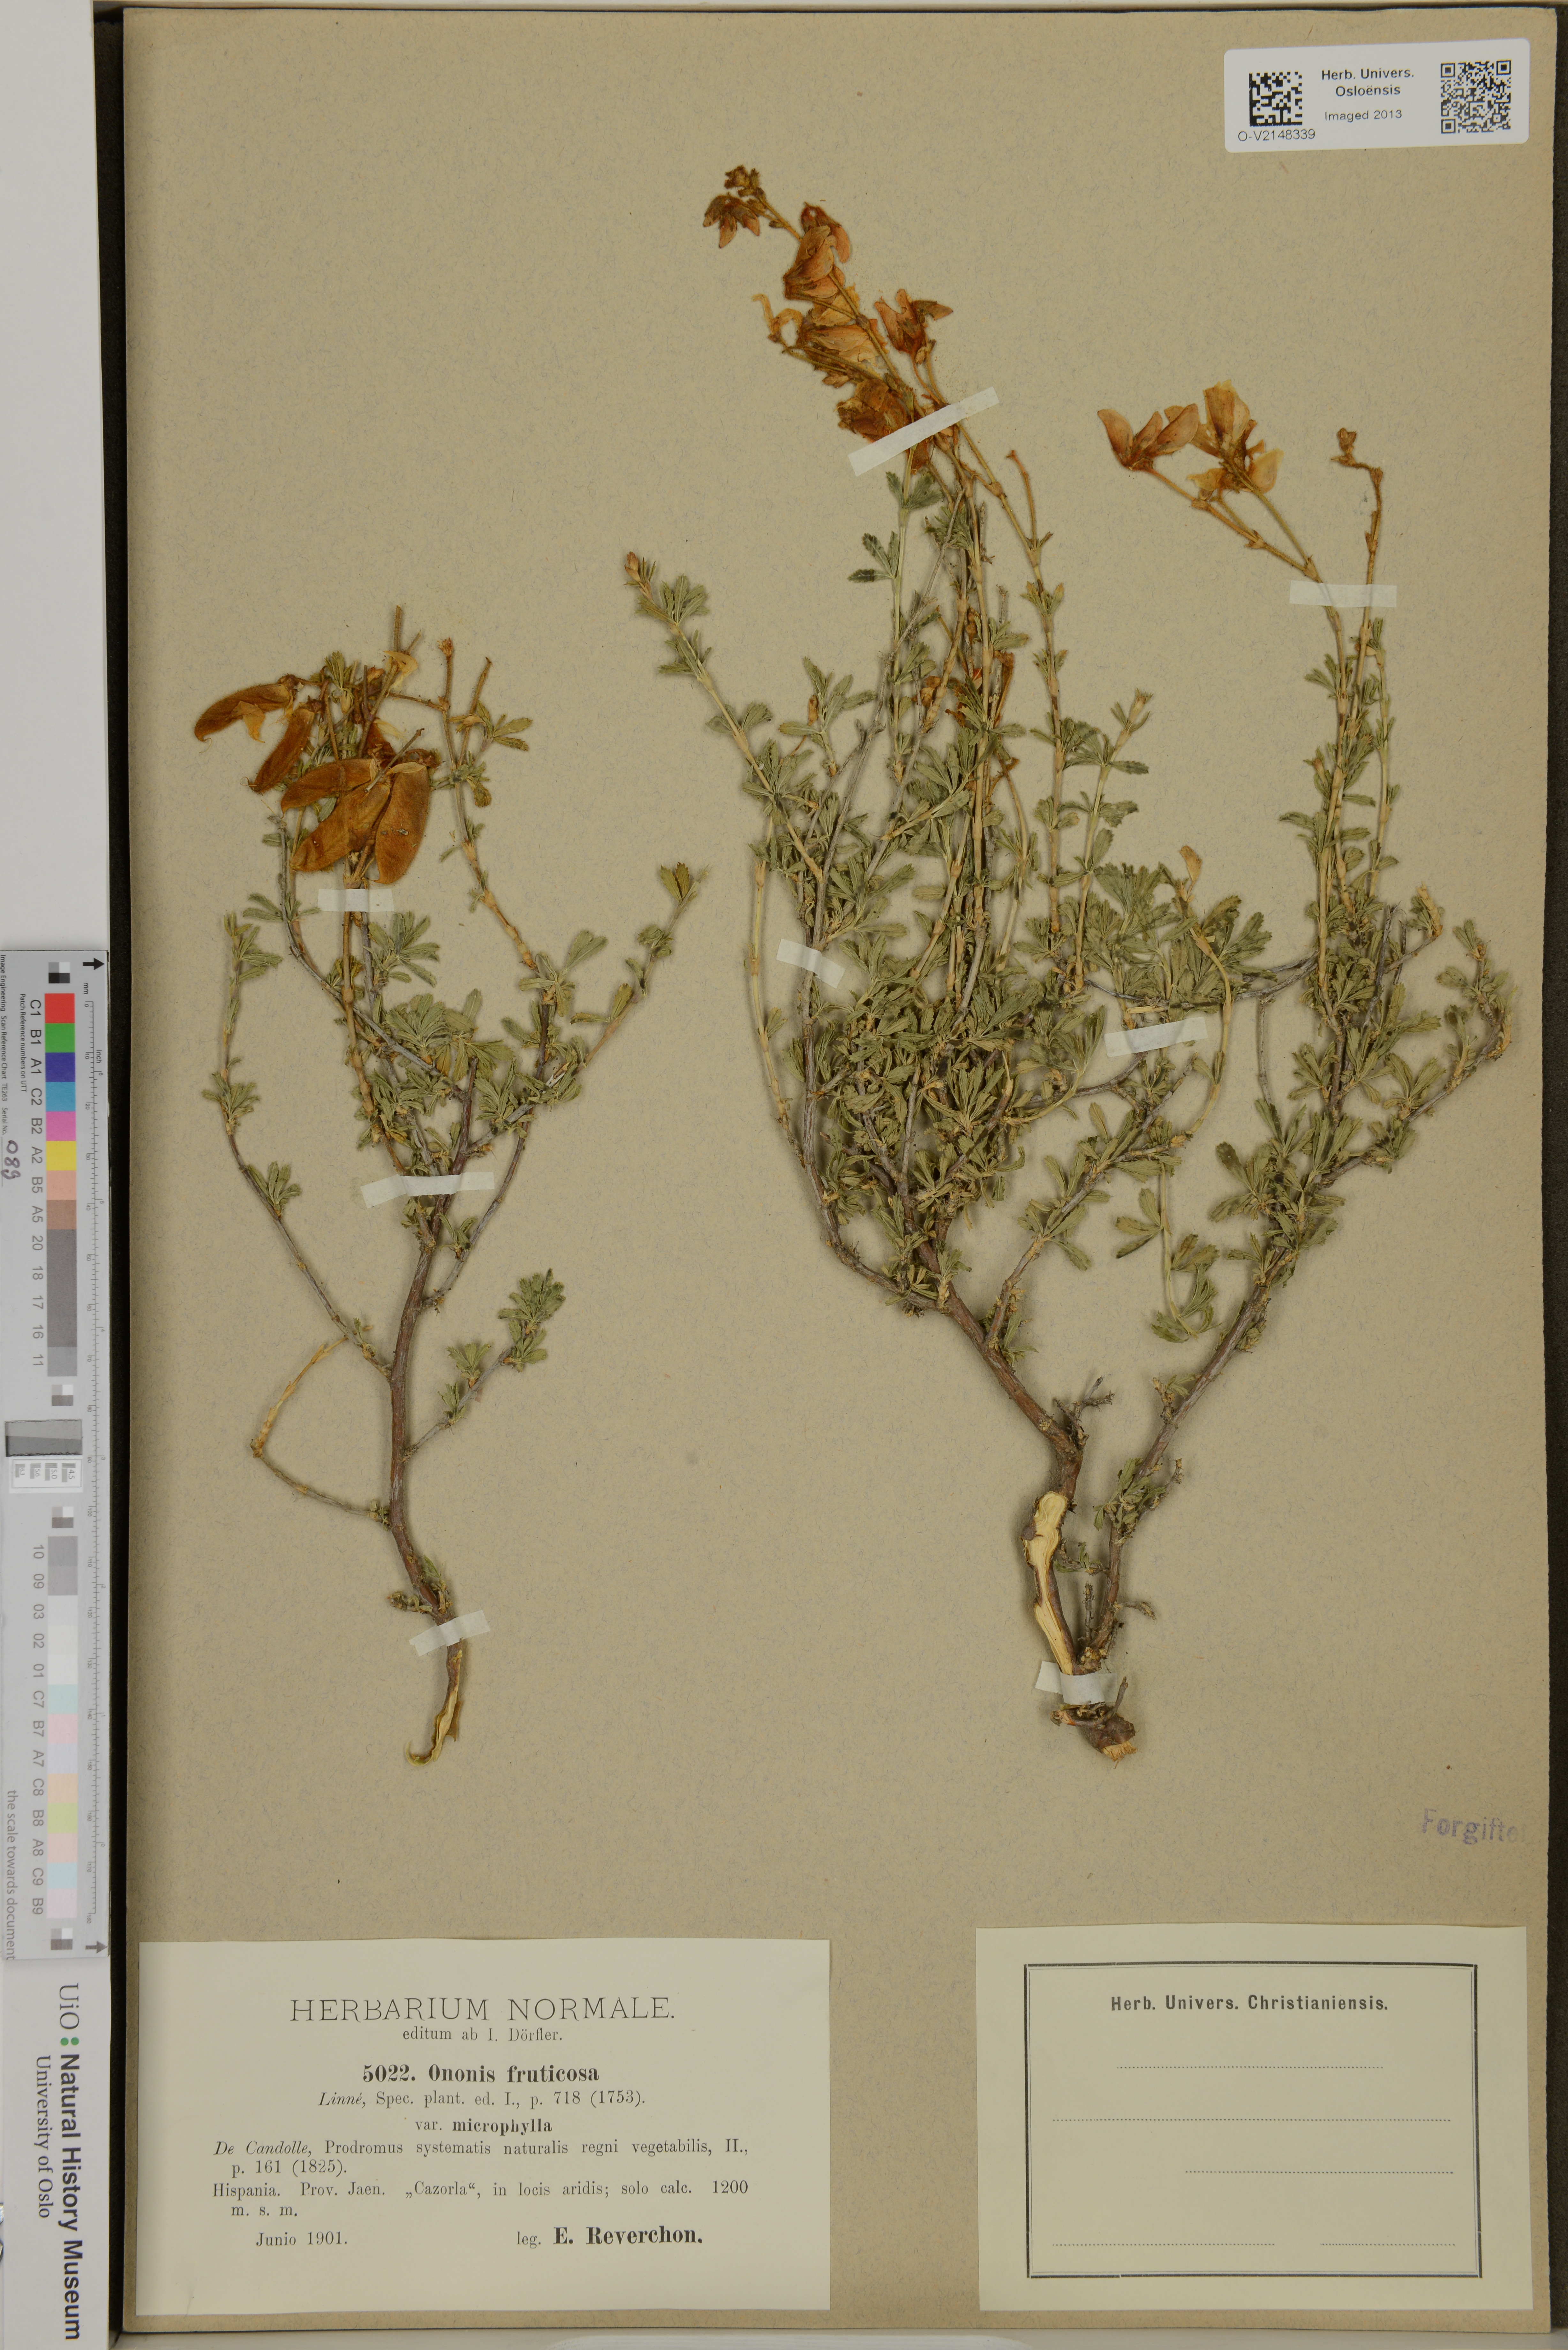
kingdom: Plantae
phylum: Tracheophyta
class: Magnoliopsida
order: Fabales
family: Fabaceae
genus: Ononis
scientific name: Ononis fruticosa
